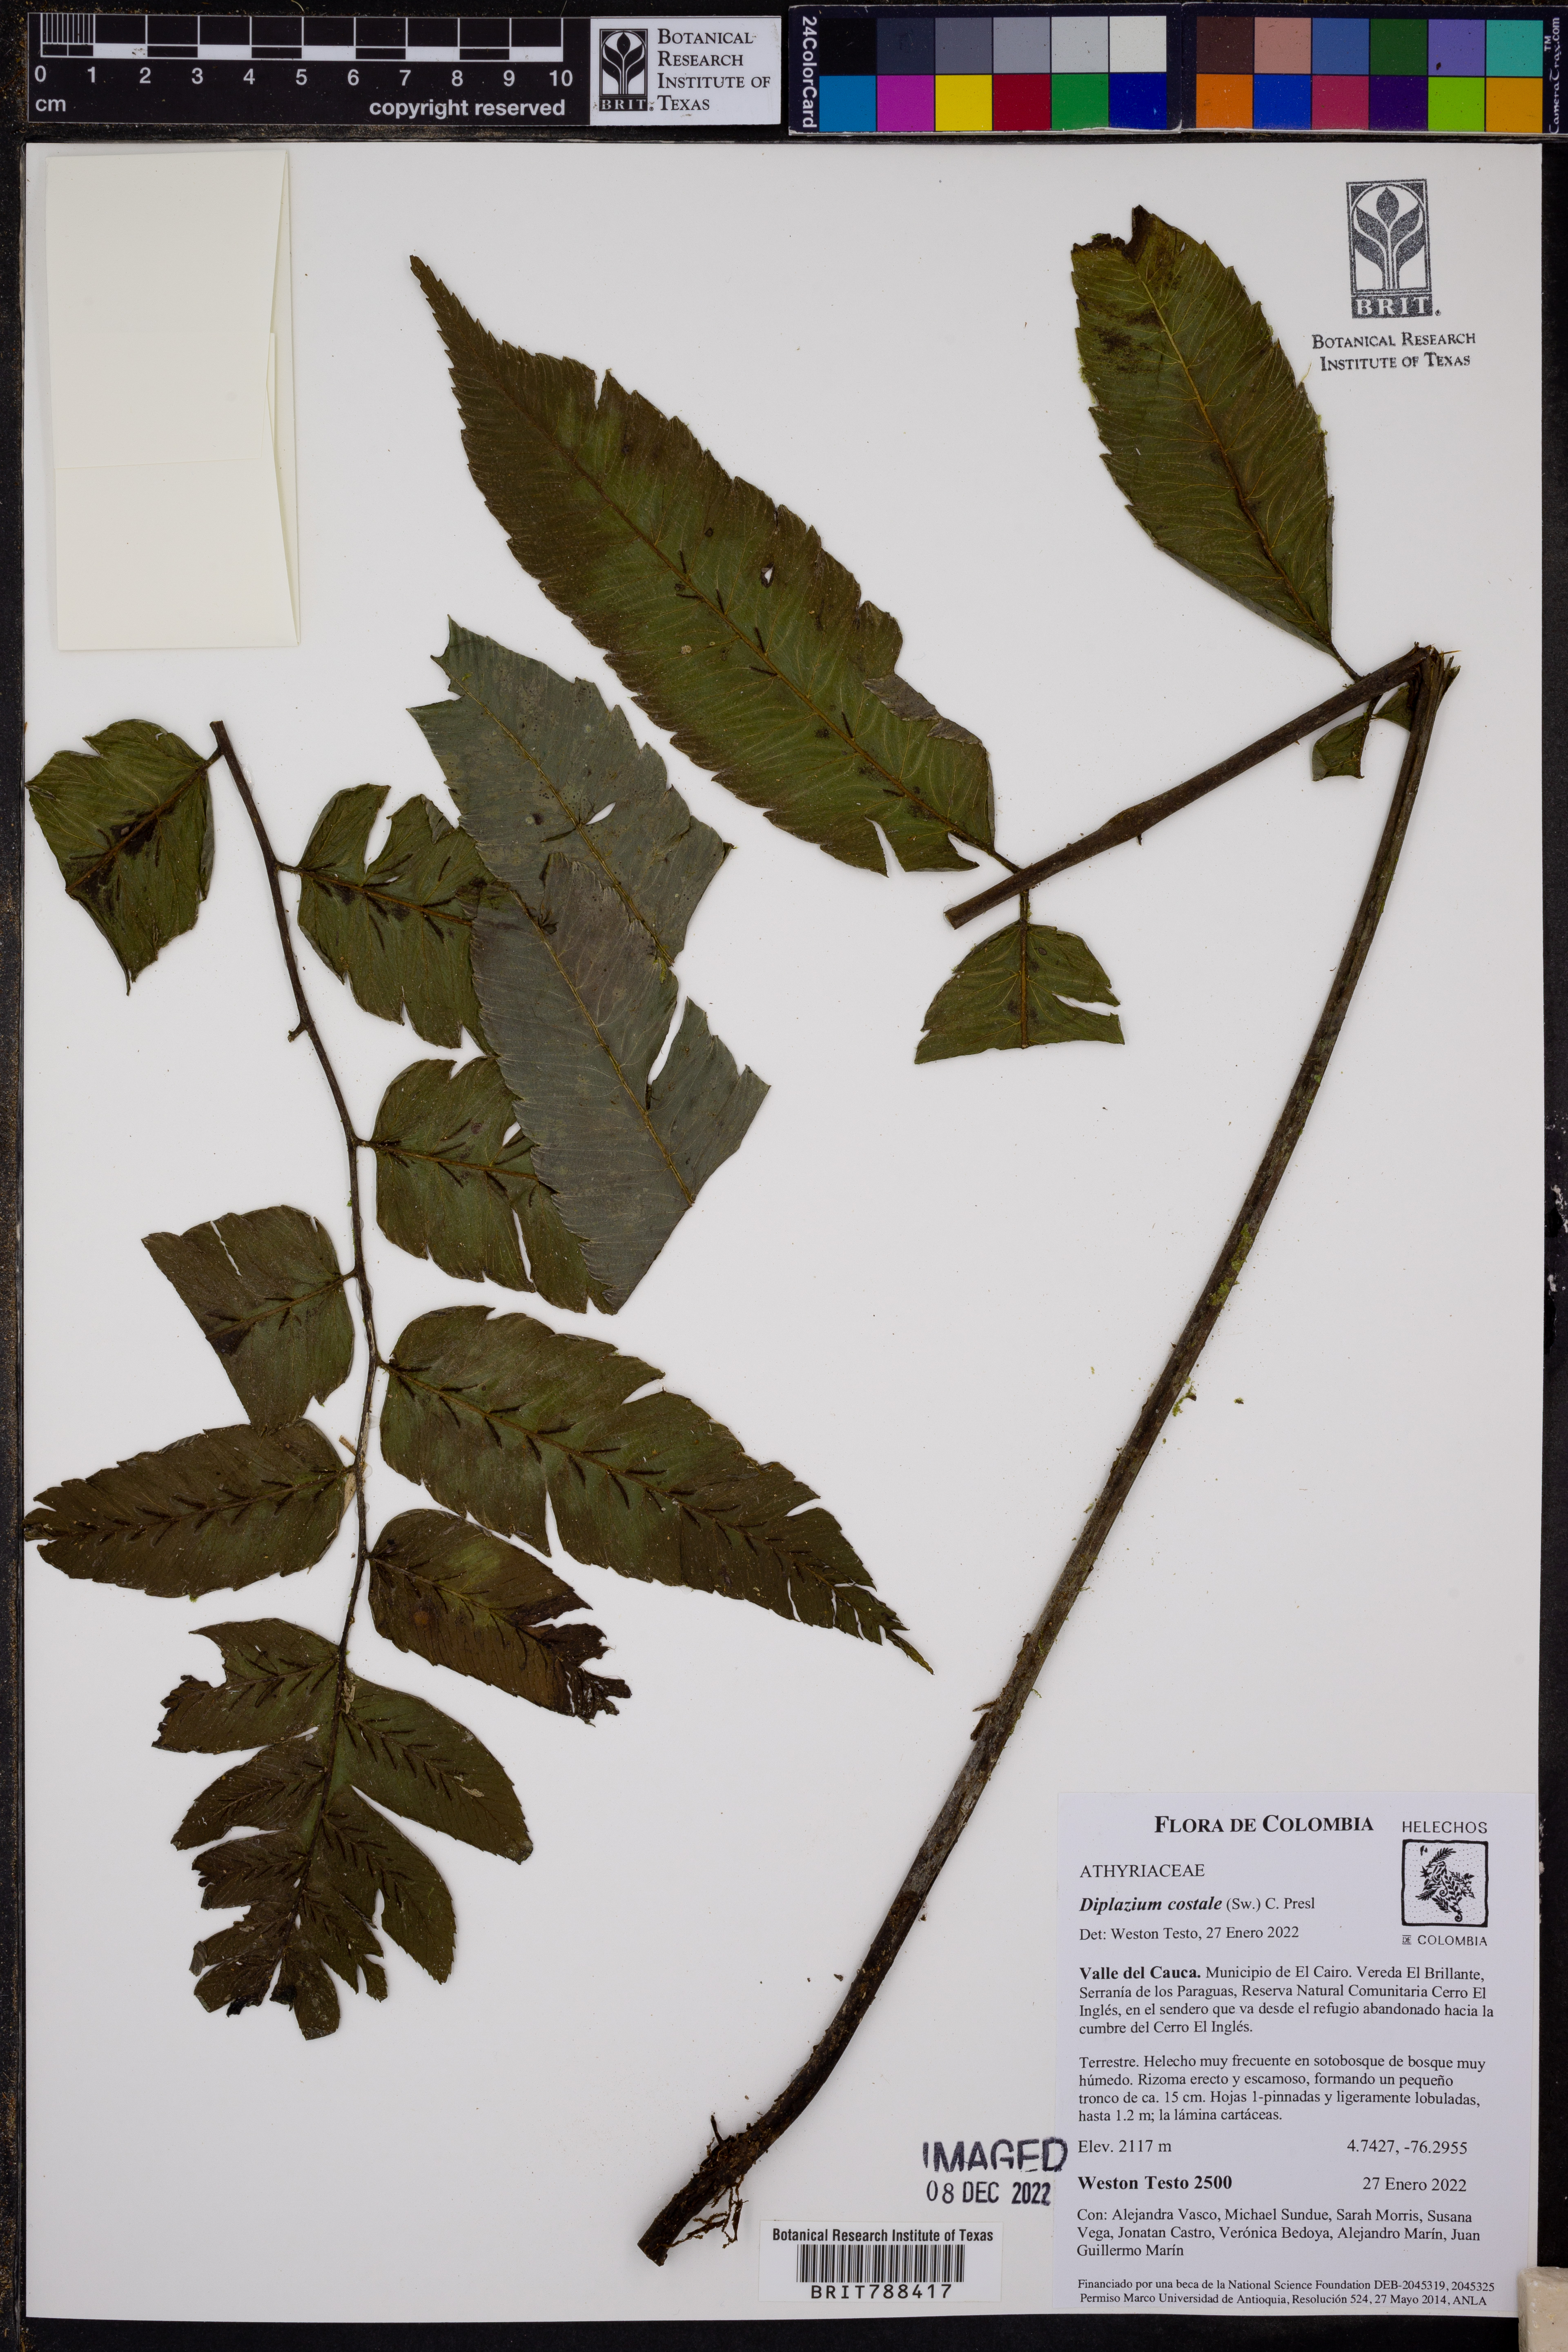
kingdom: Plantae
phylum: Tracheophyta
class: Polypodiopsida
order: Polypodiales
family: Athyriaceae
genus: Diplazium
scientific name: Diplazium costale
